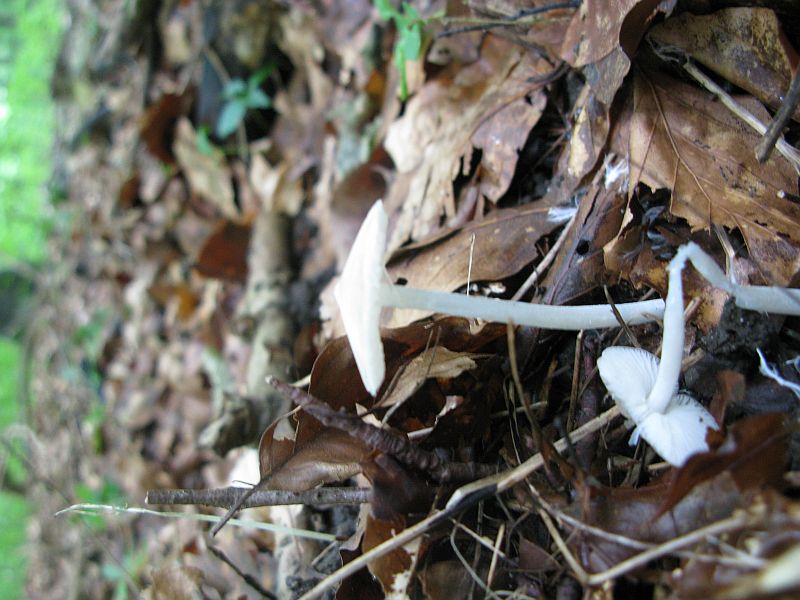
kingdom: Fungi
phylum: Basidiomycota
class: Agaricomycetes
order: Agaricales
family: Porotheleaceae
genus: Hydropodia
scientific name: Hydropodia subalpina
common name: vår-fnugfod
